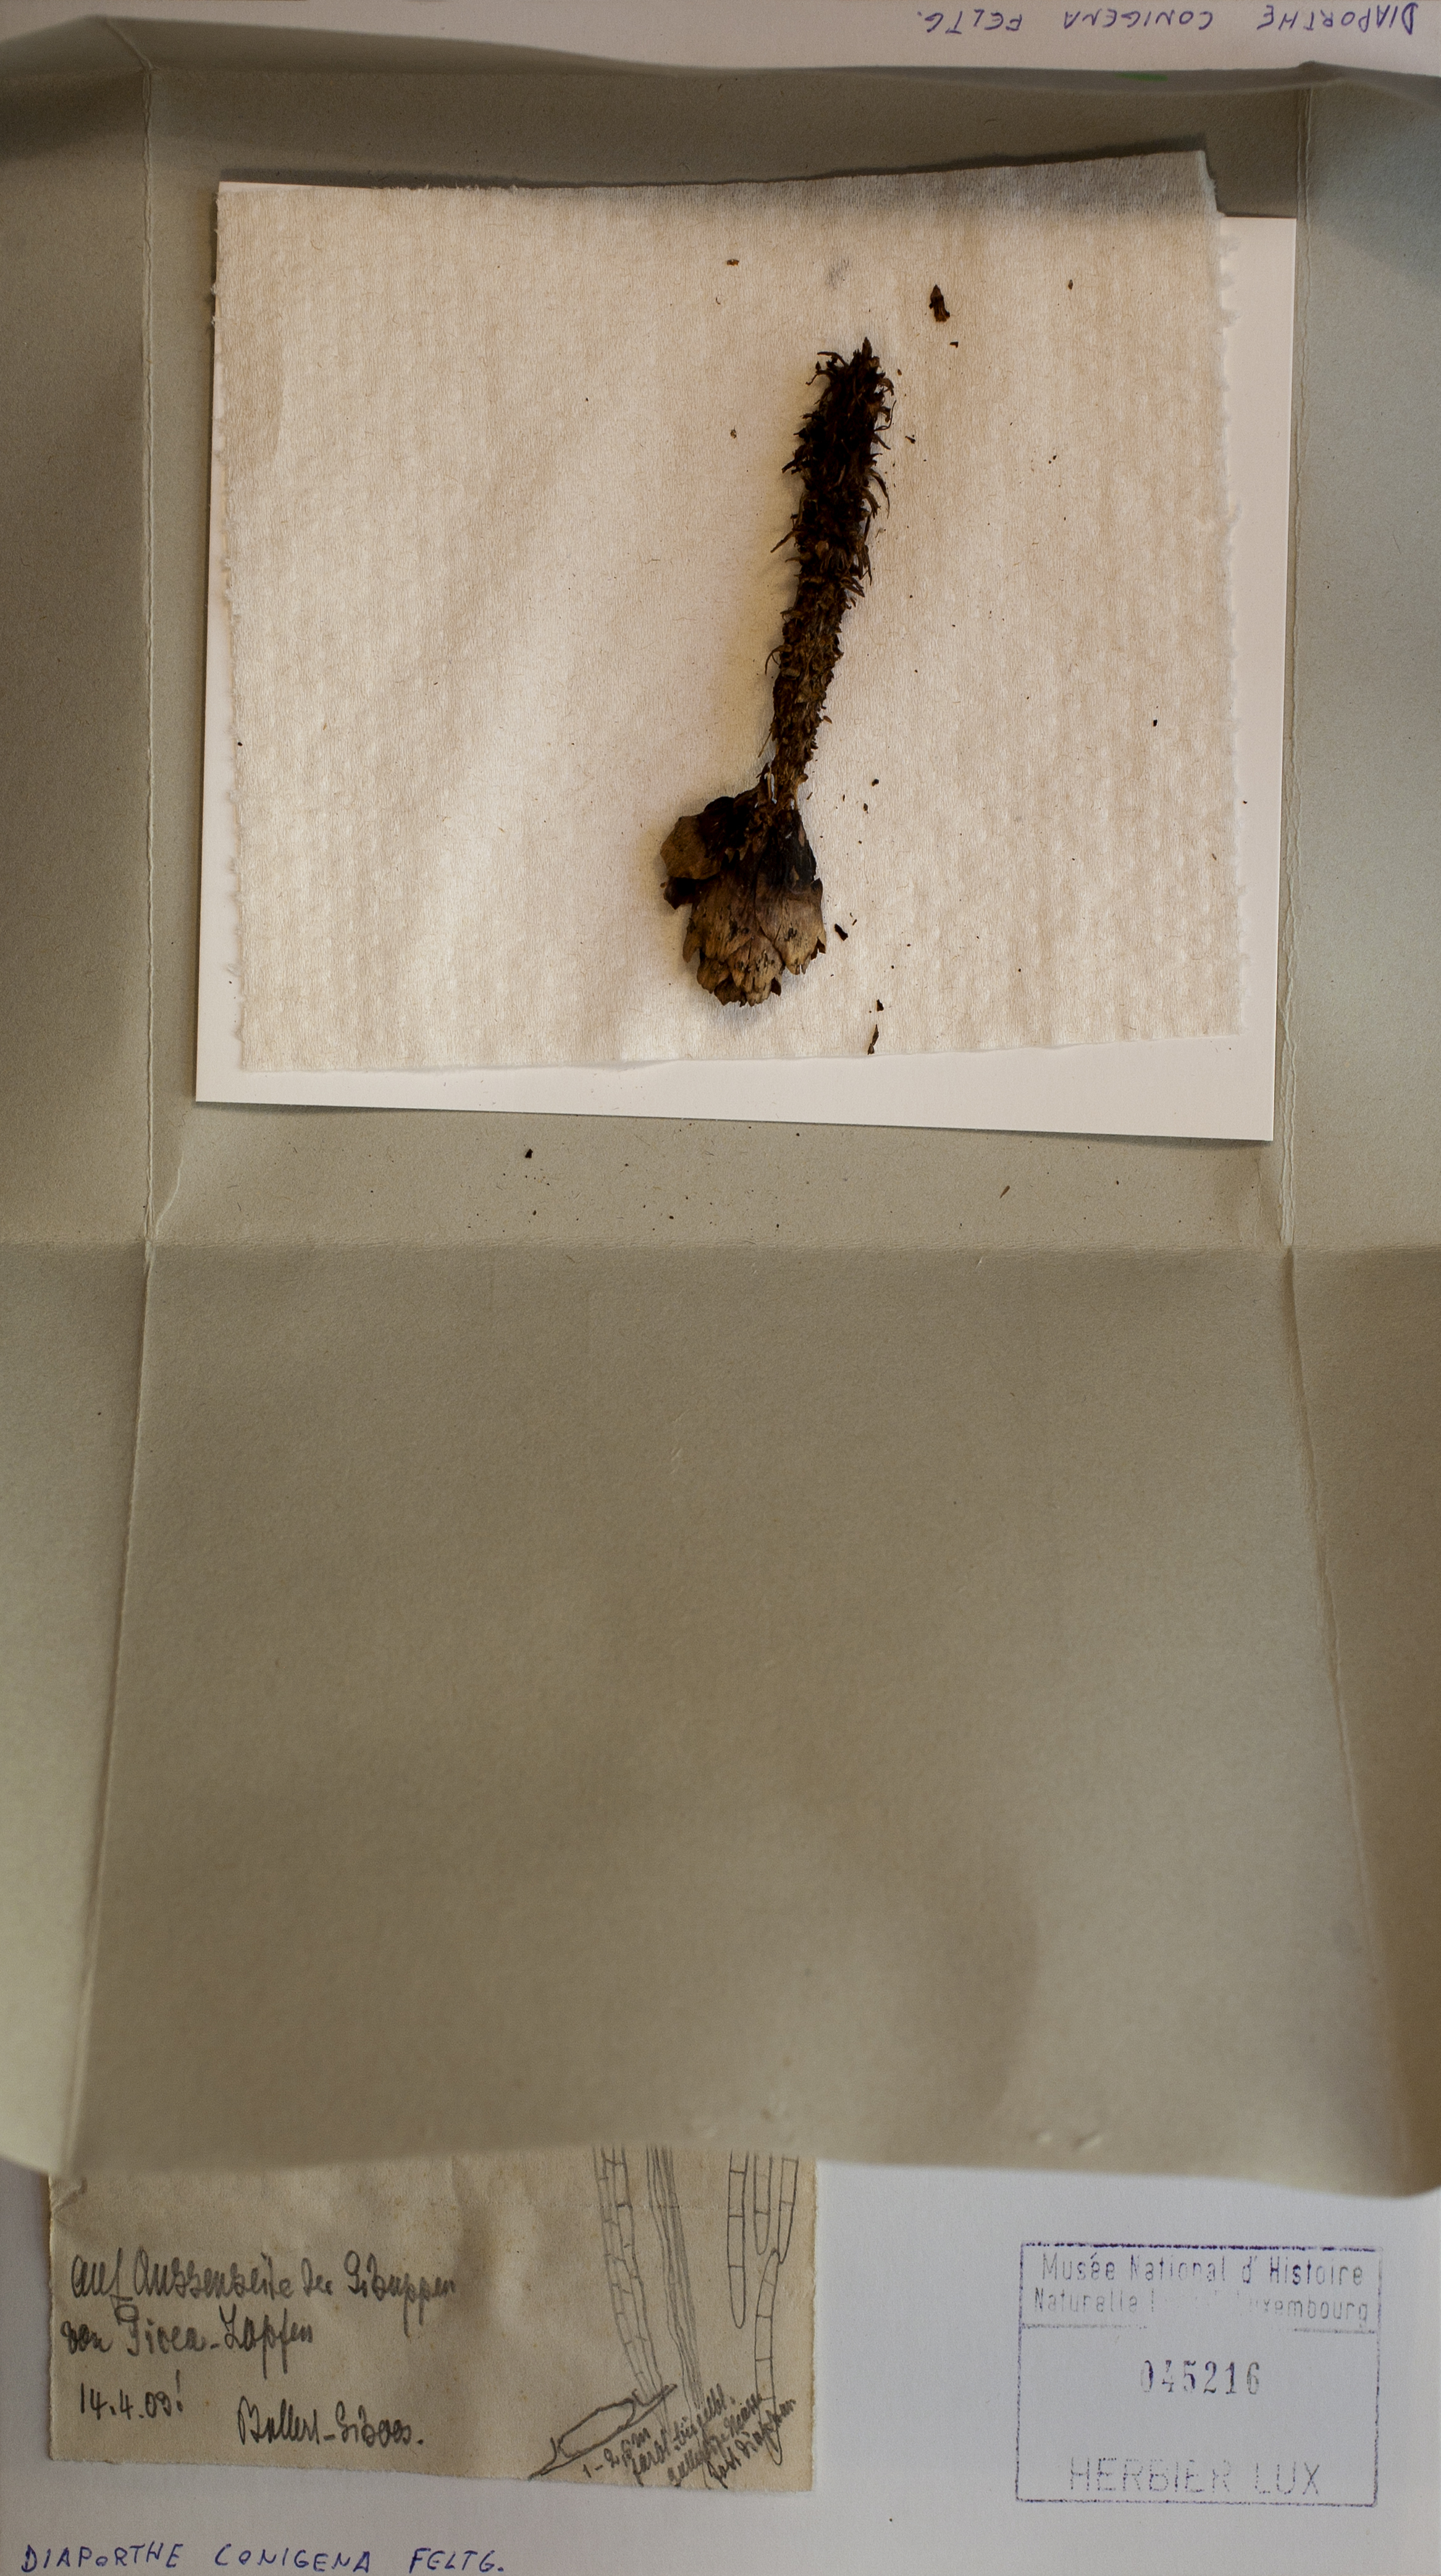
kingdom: Fungi
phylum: Ascomycota
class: Sordariomycetes
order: Diaporthales
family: Diaporthaceae
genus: Diaporthe
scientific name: Diaporthe conigena
